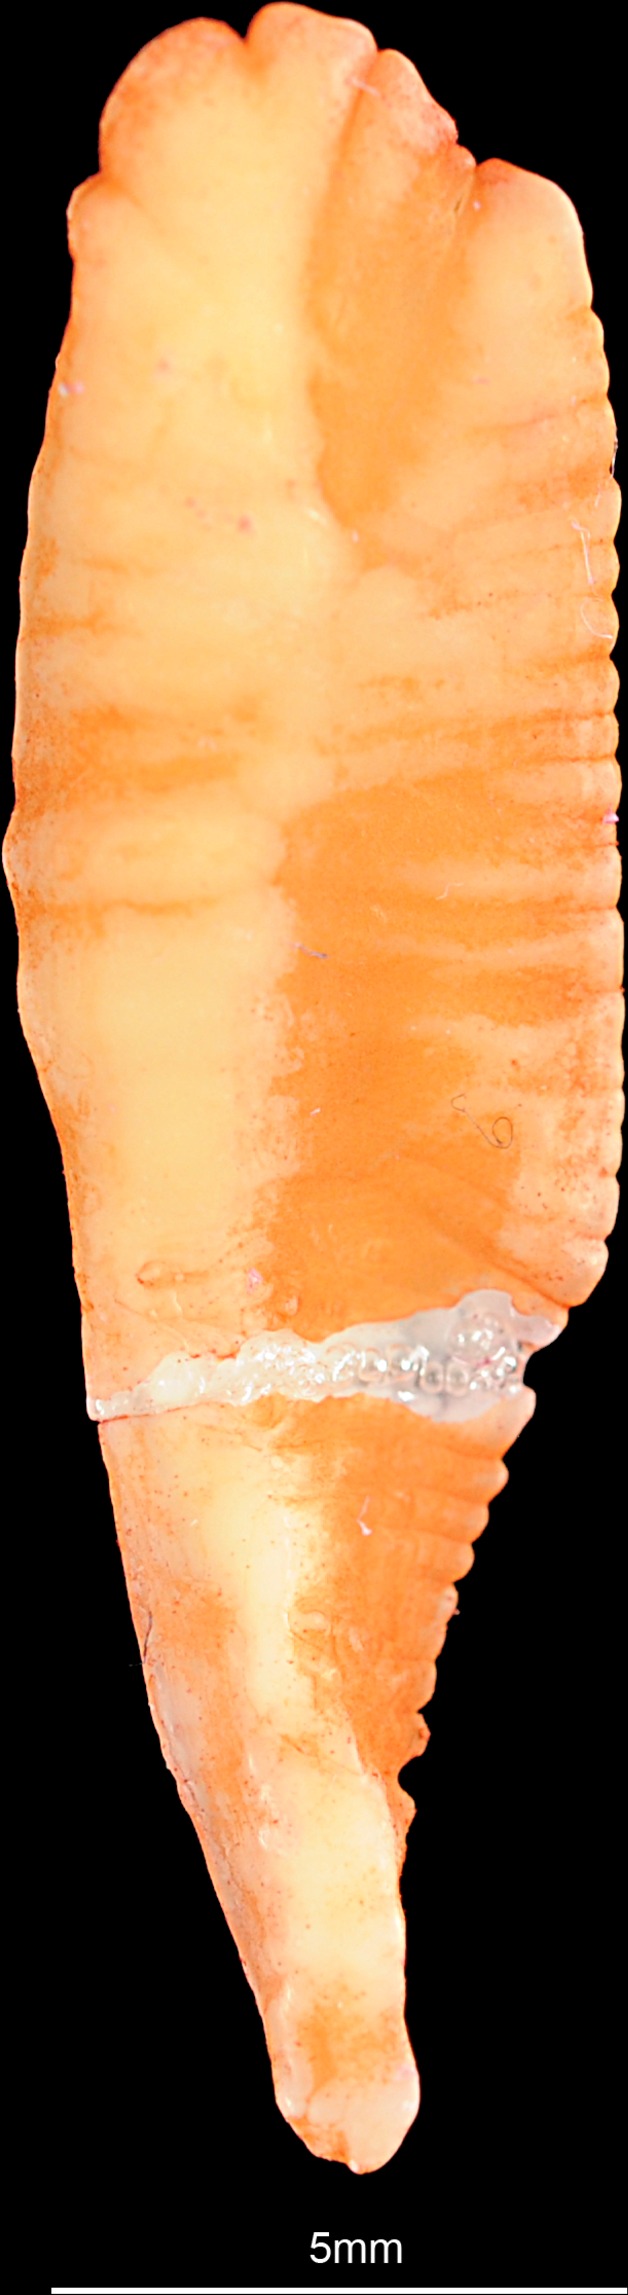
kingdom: Animalia
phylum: Chordata
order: Gadiformes
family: Gadidae
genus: Merlangius
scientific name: Merlangius merlangus
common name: Whiting
